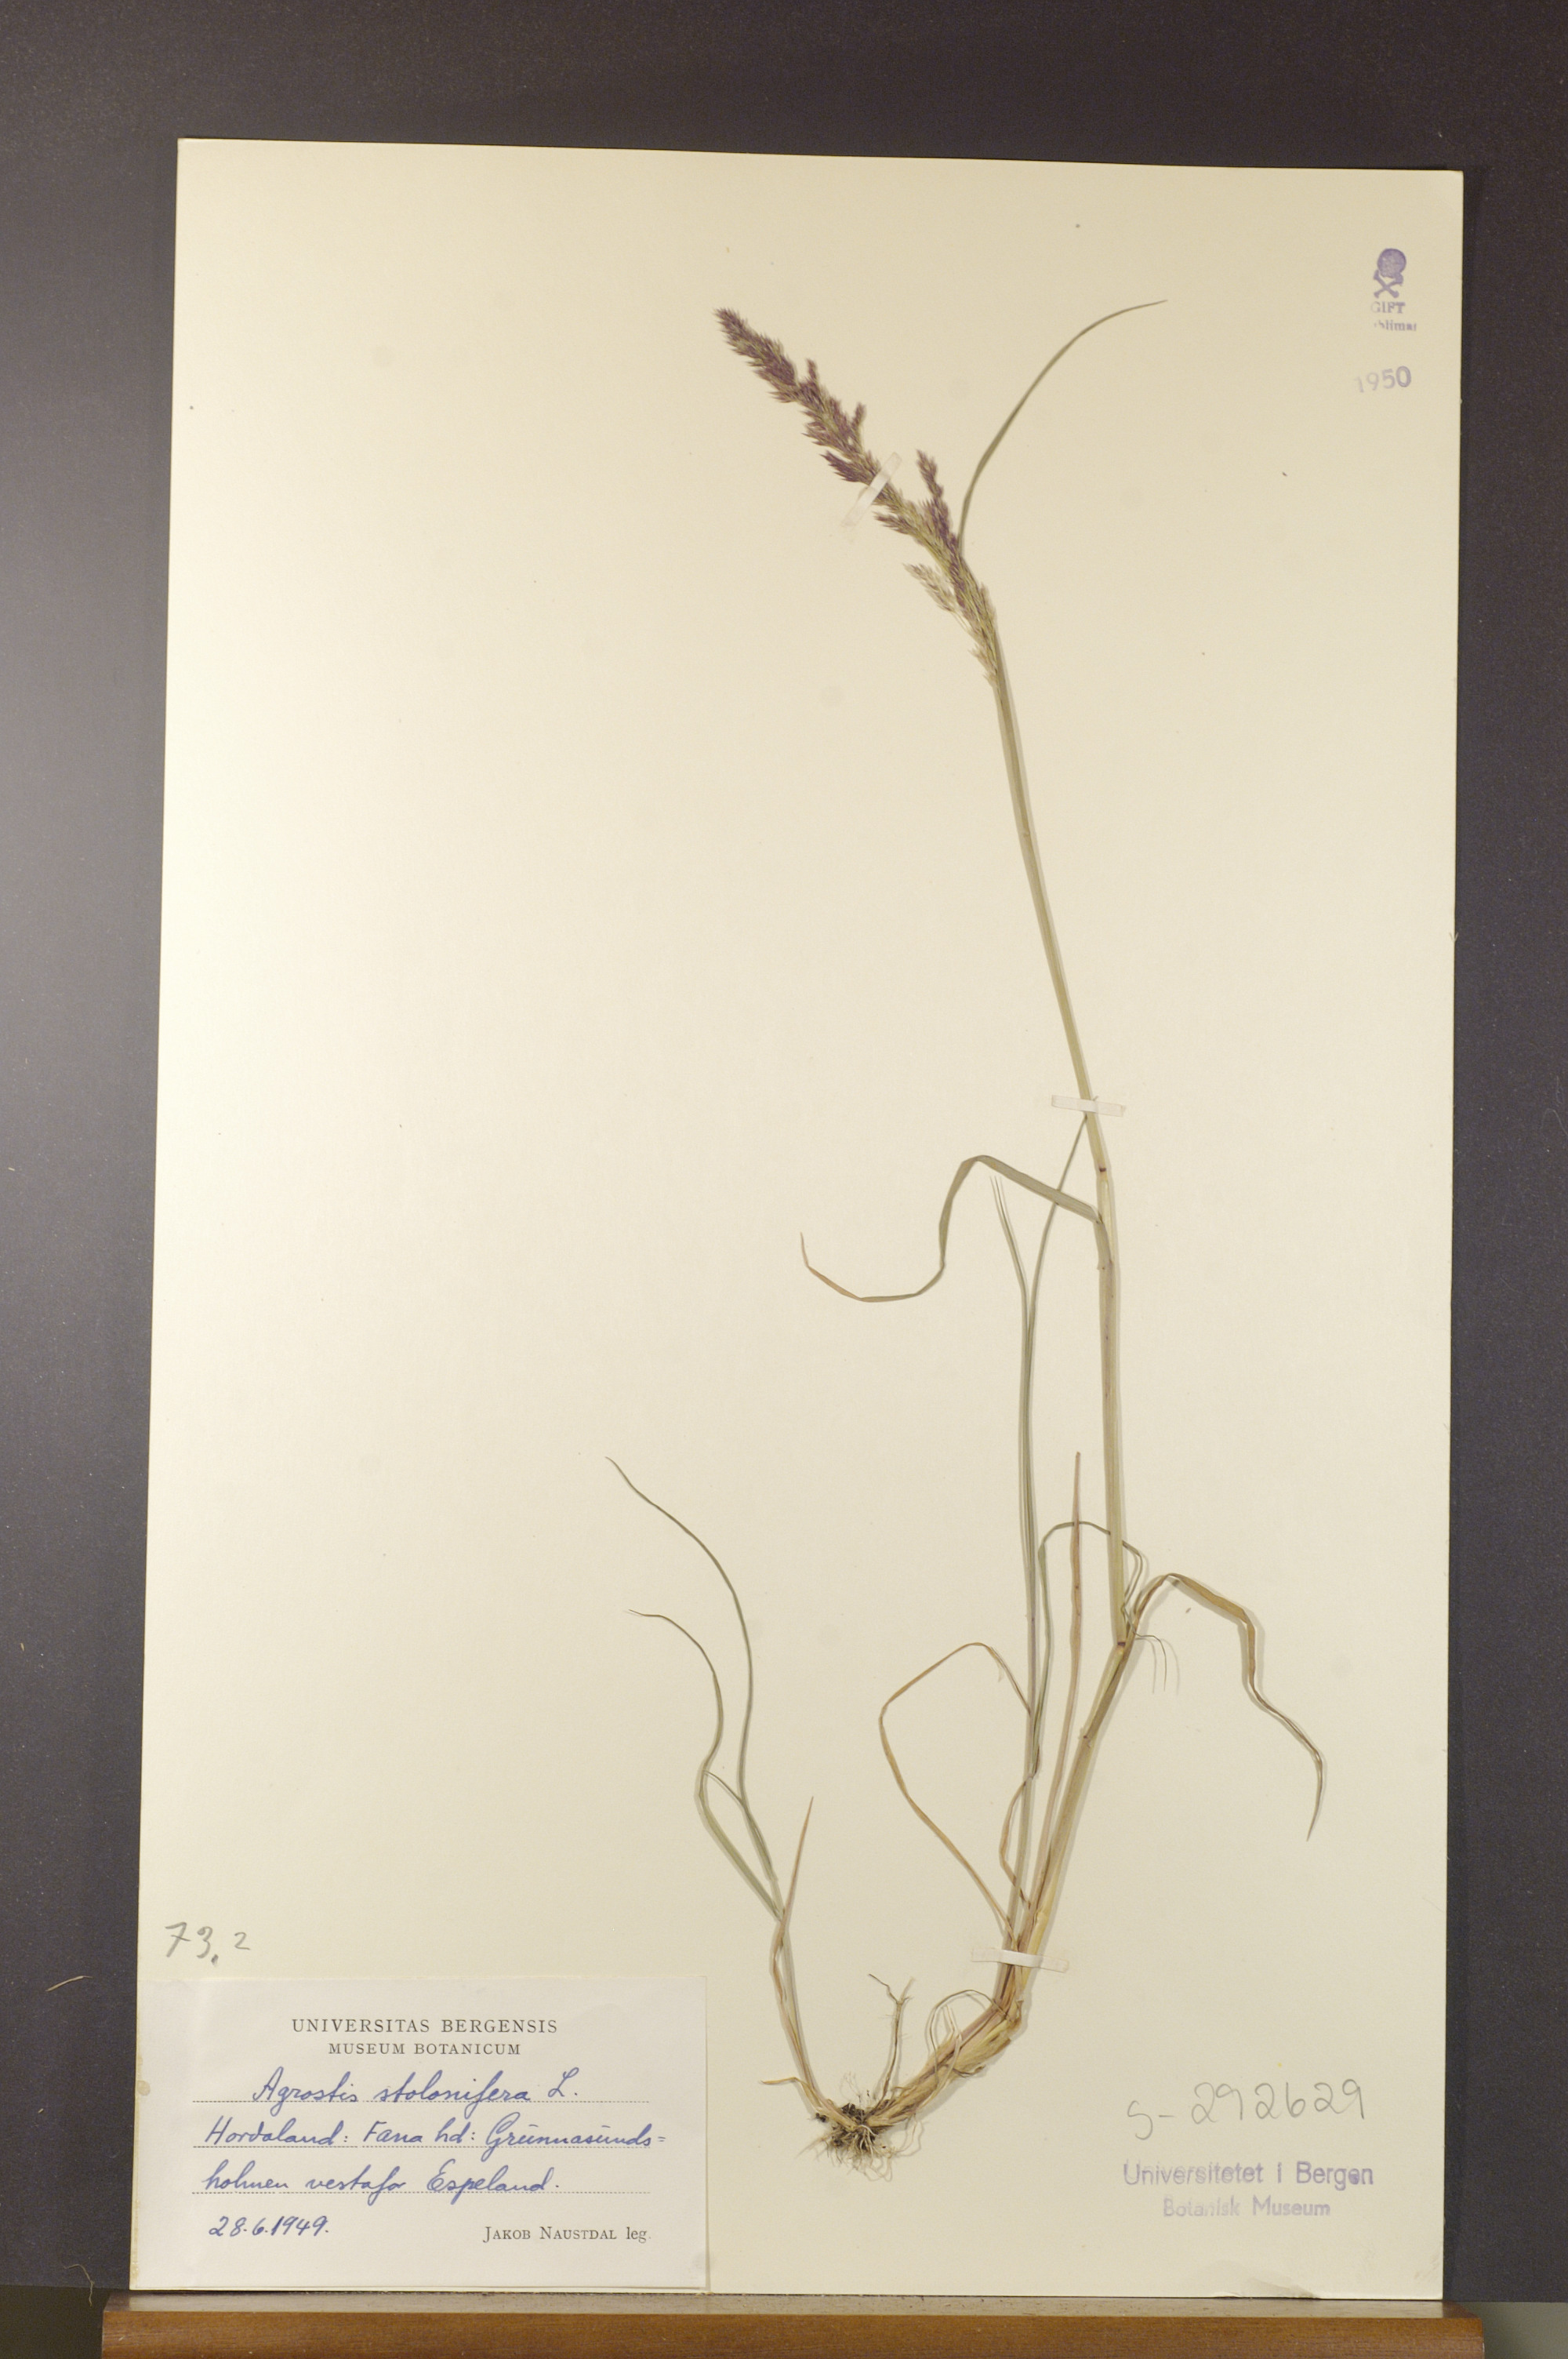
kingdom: Plantae
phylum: Tracheophyta
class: Liliopsida
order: Poales
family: Poaceae
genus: Agrostis
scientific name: Agrostis stolonifera
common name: Creeping bentgrass
